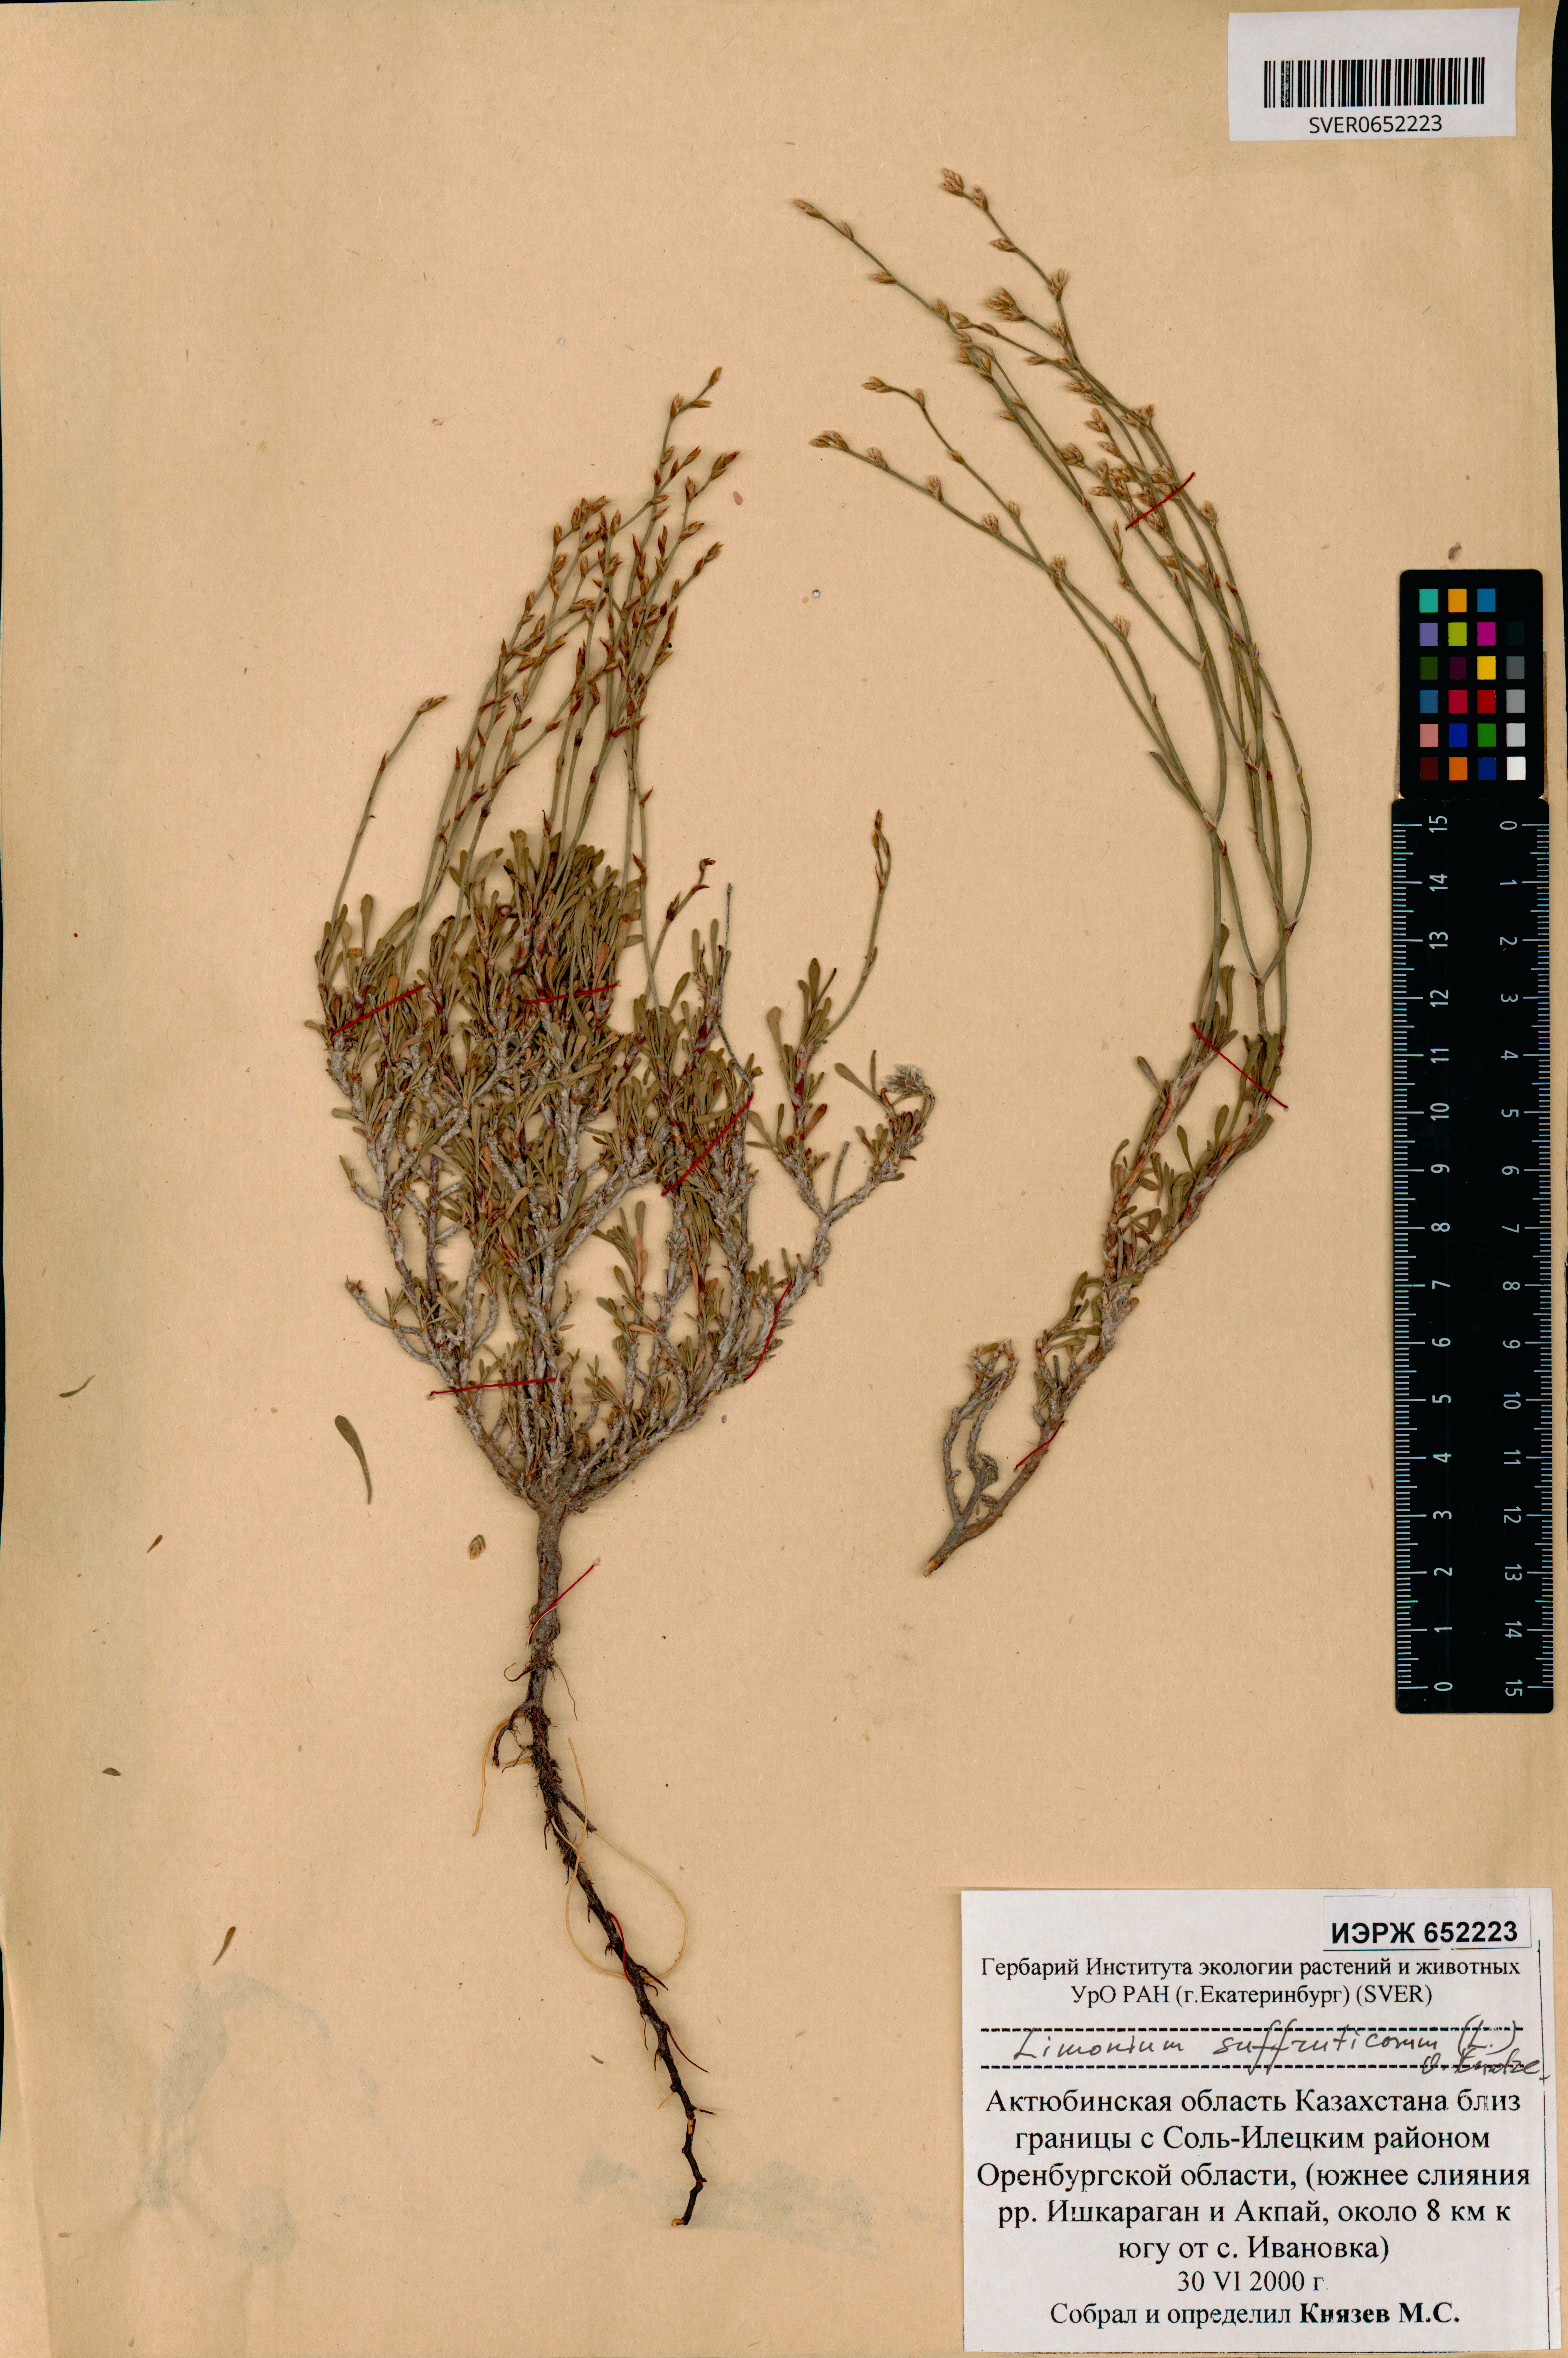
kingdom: Plantae
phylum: Tracheophyta
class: Magnoliopsida
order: Caryophyllales
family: Plumbaginaceae
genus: Limonium
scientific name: Limonium suffruticosum
